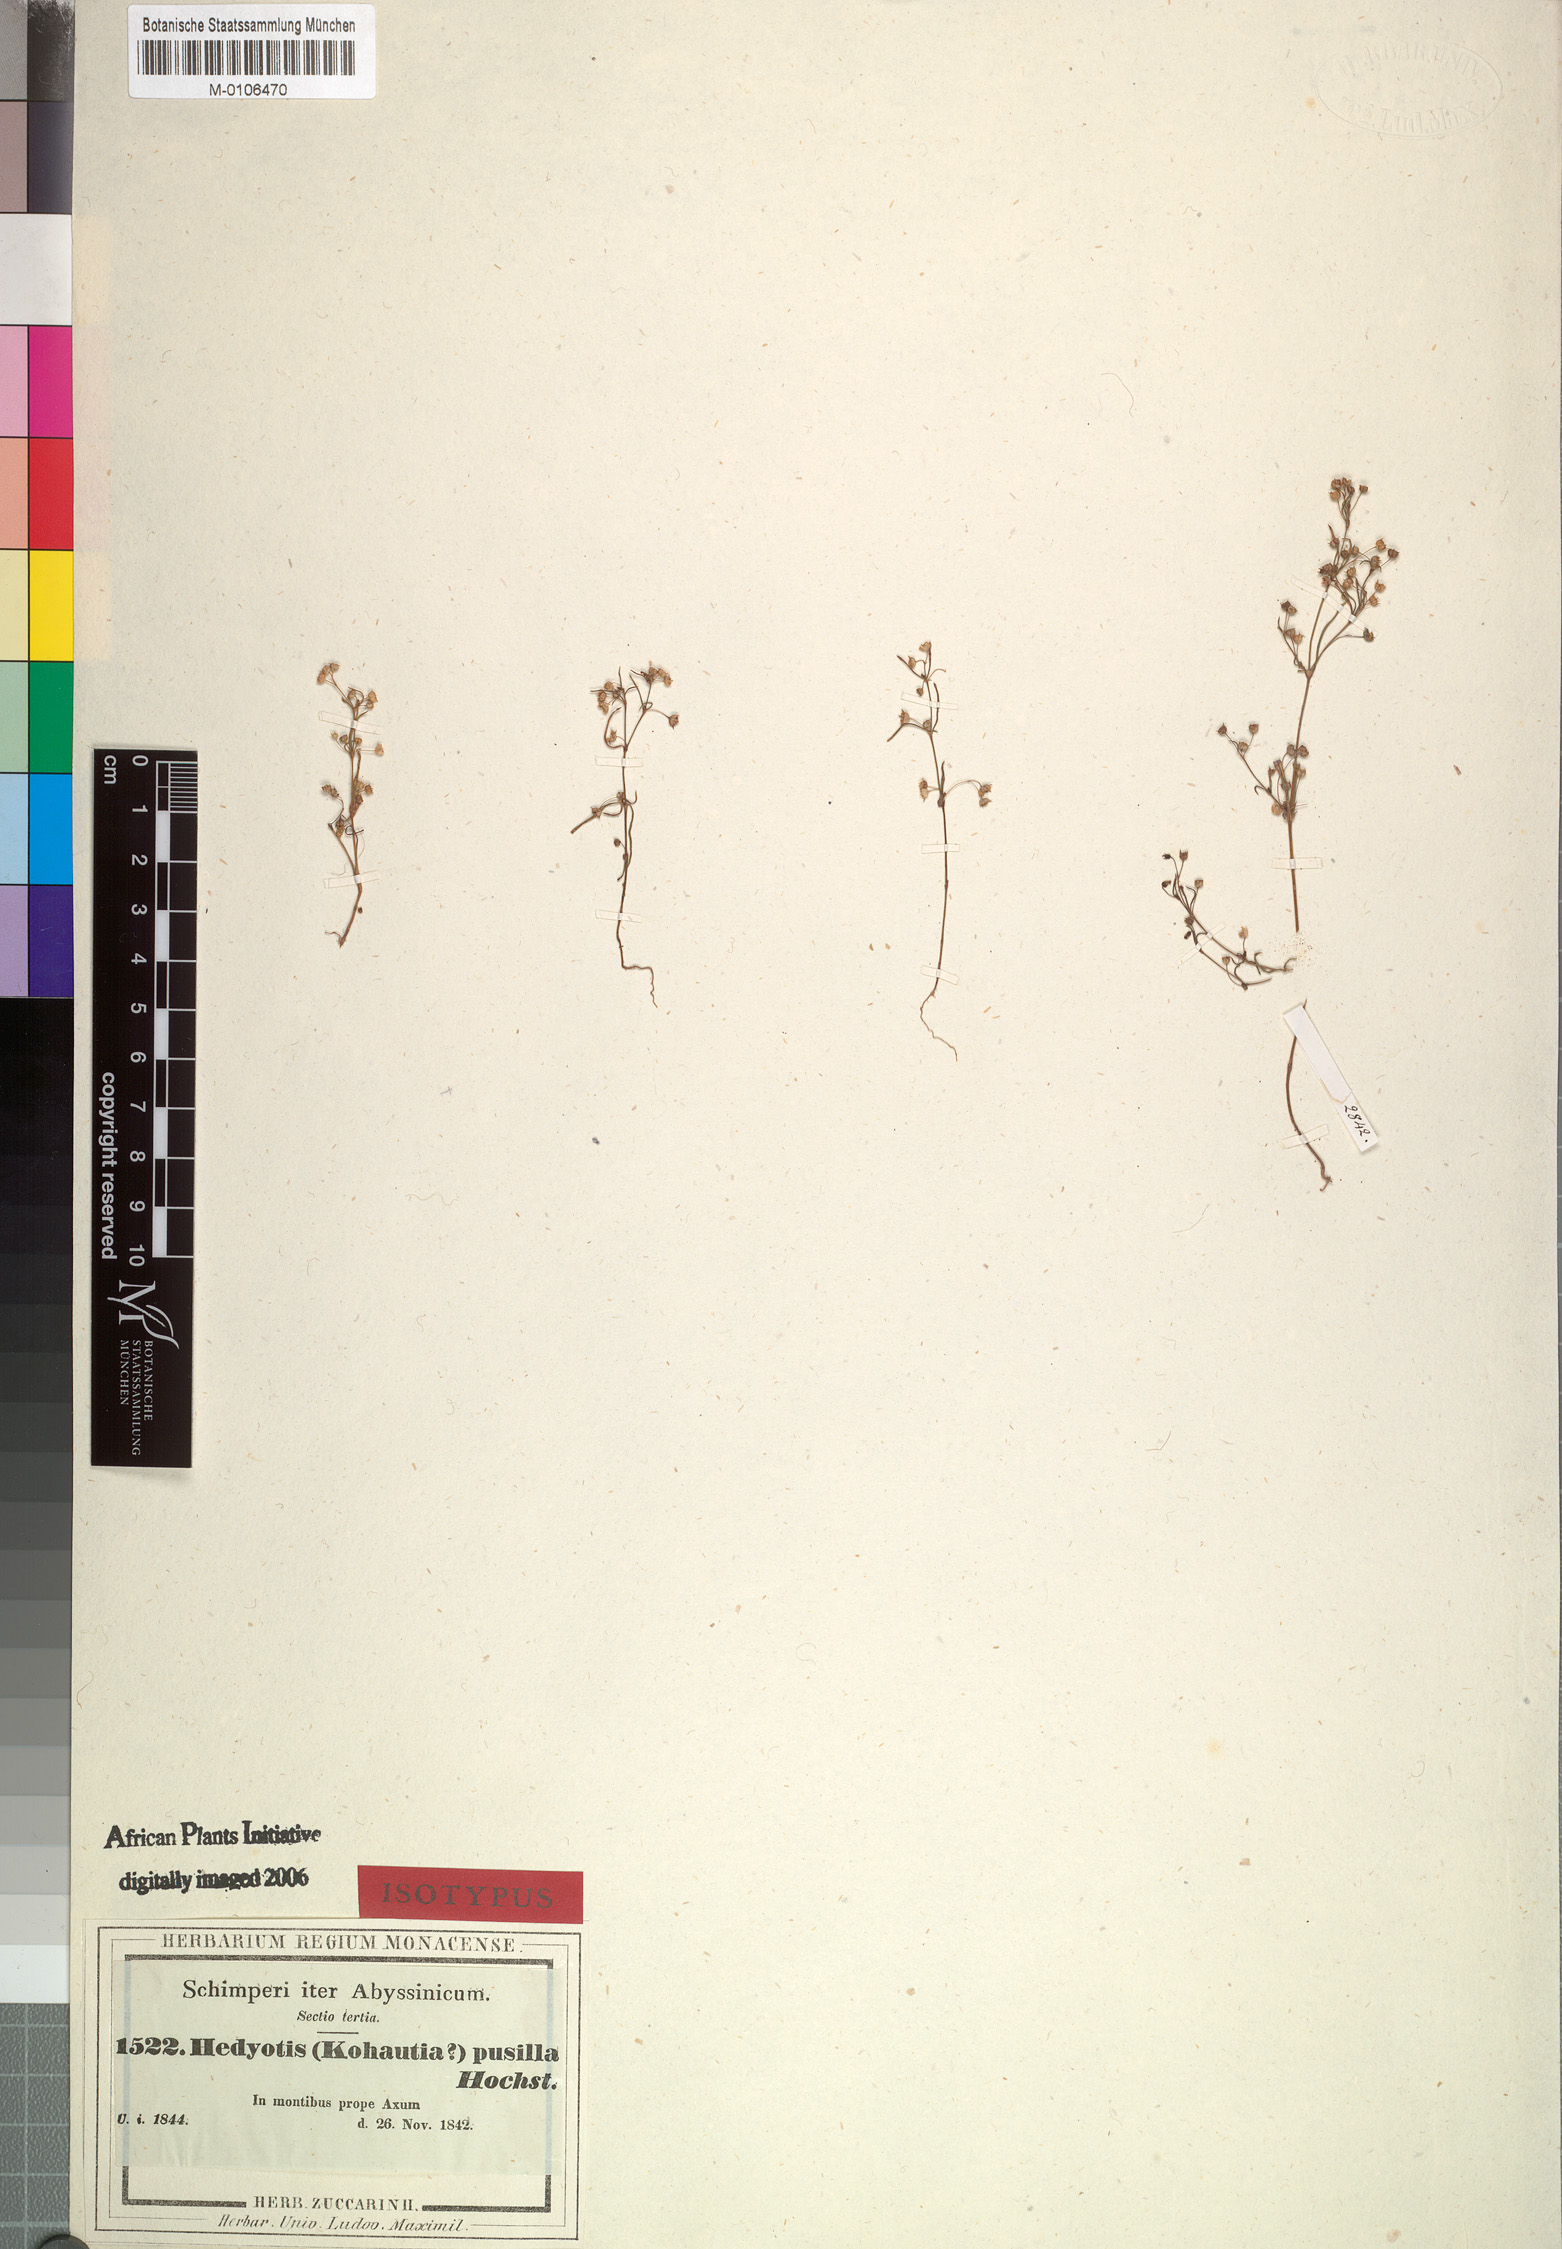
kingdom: Plantae
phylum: Tracheophyta
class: Magnoliopsida
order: Gentianales
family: Rubiaceae
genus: Oldenlandia
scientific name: Oldenlandia corymbosa
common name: Flat-top mille graines
